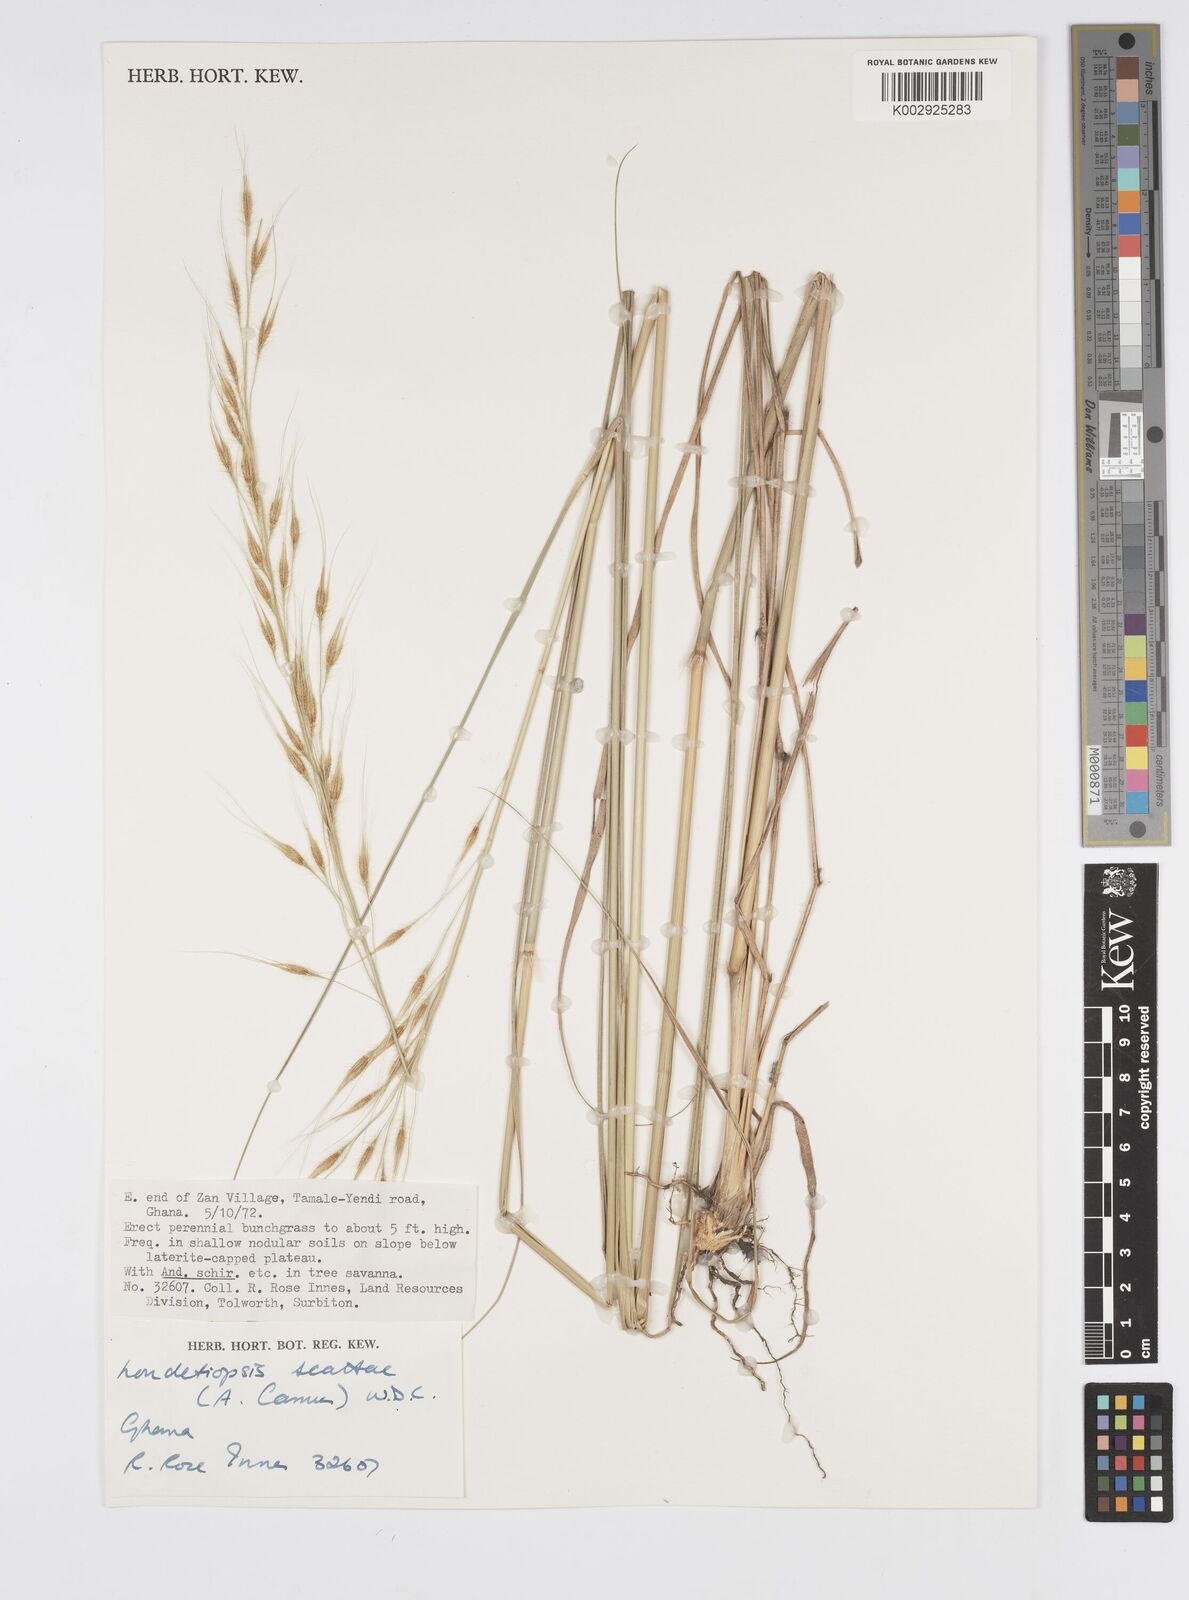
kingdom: Plantae
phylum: Tracheophyta
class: Liliopsida
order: Poales
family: Poaceae
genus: Loudetiopsis
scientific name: Loudetiopsis scaettae
